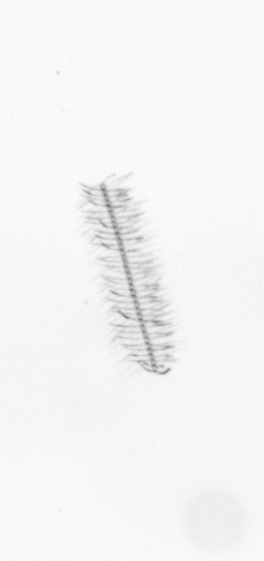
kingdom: Chromista
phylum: Ochrophyta
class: Bacillariophyceae
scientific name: Bacillariophyceae
